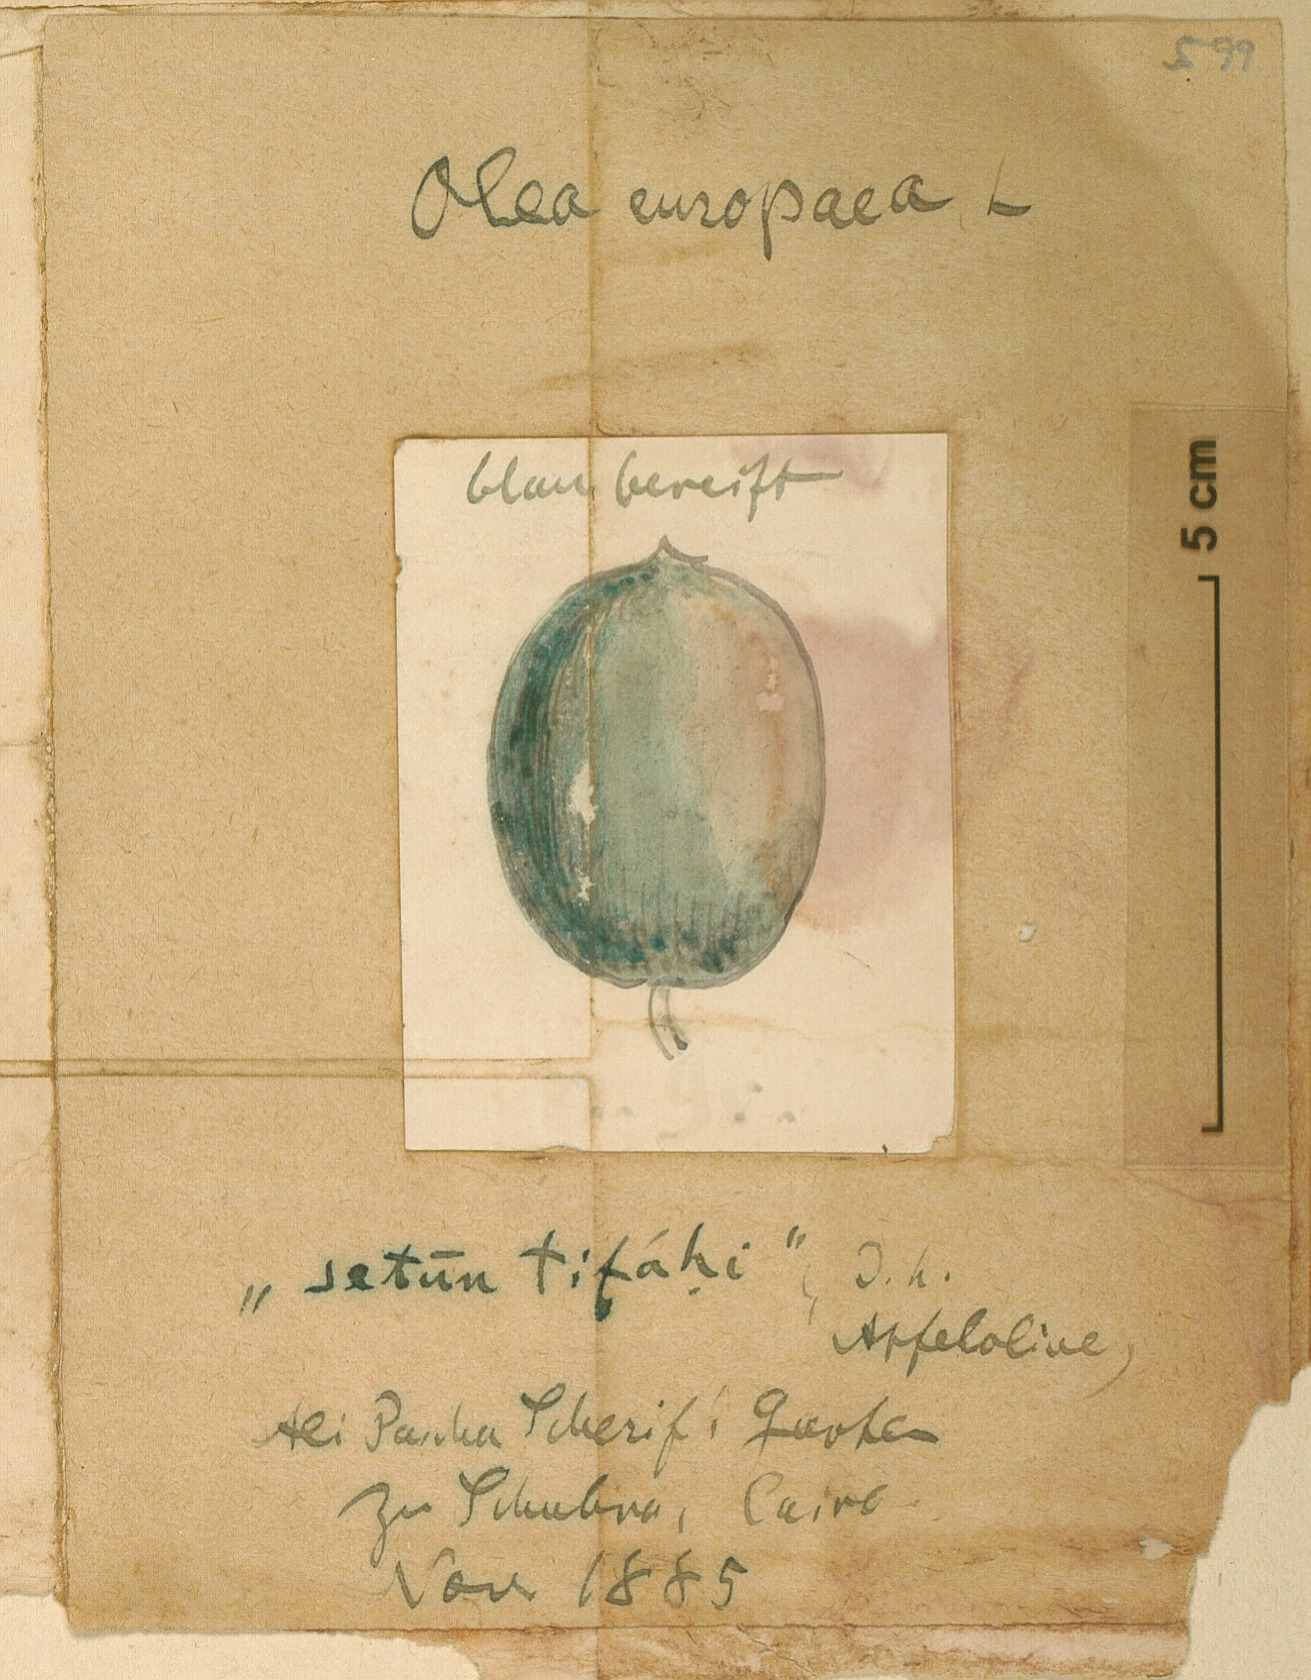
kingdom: Plantae
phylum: Tracheophyta
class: Magnoliopsida
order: Lamiales
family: Oleaceae
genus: Olea
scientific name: Olea europaea
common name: Olive
